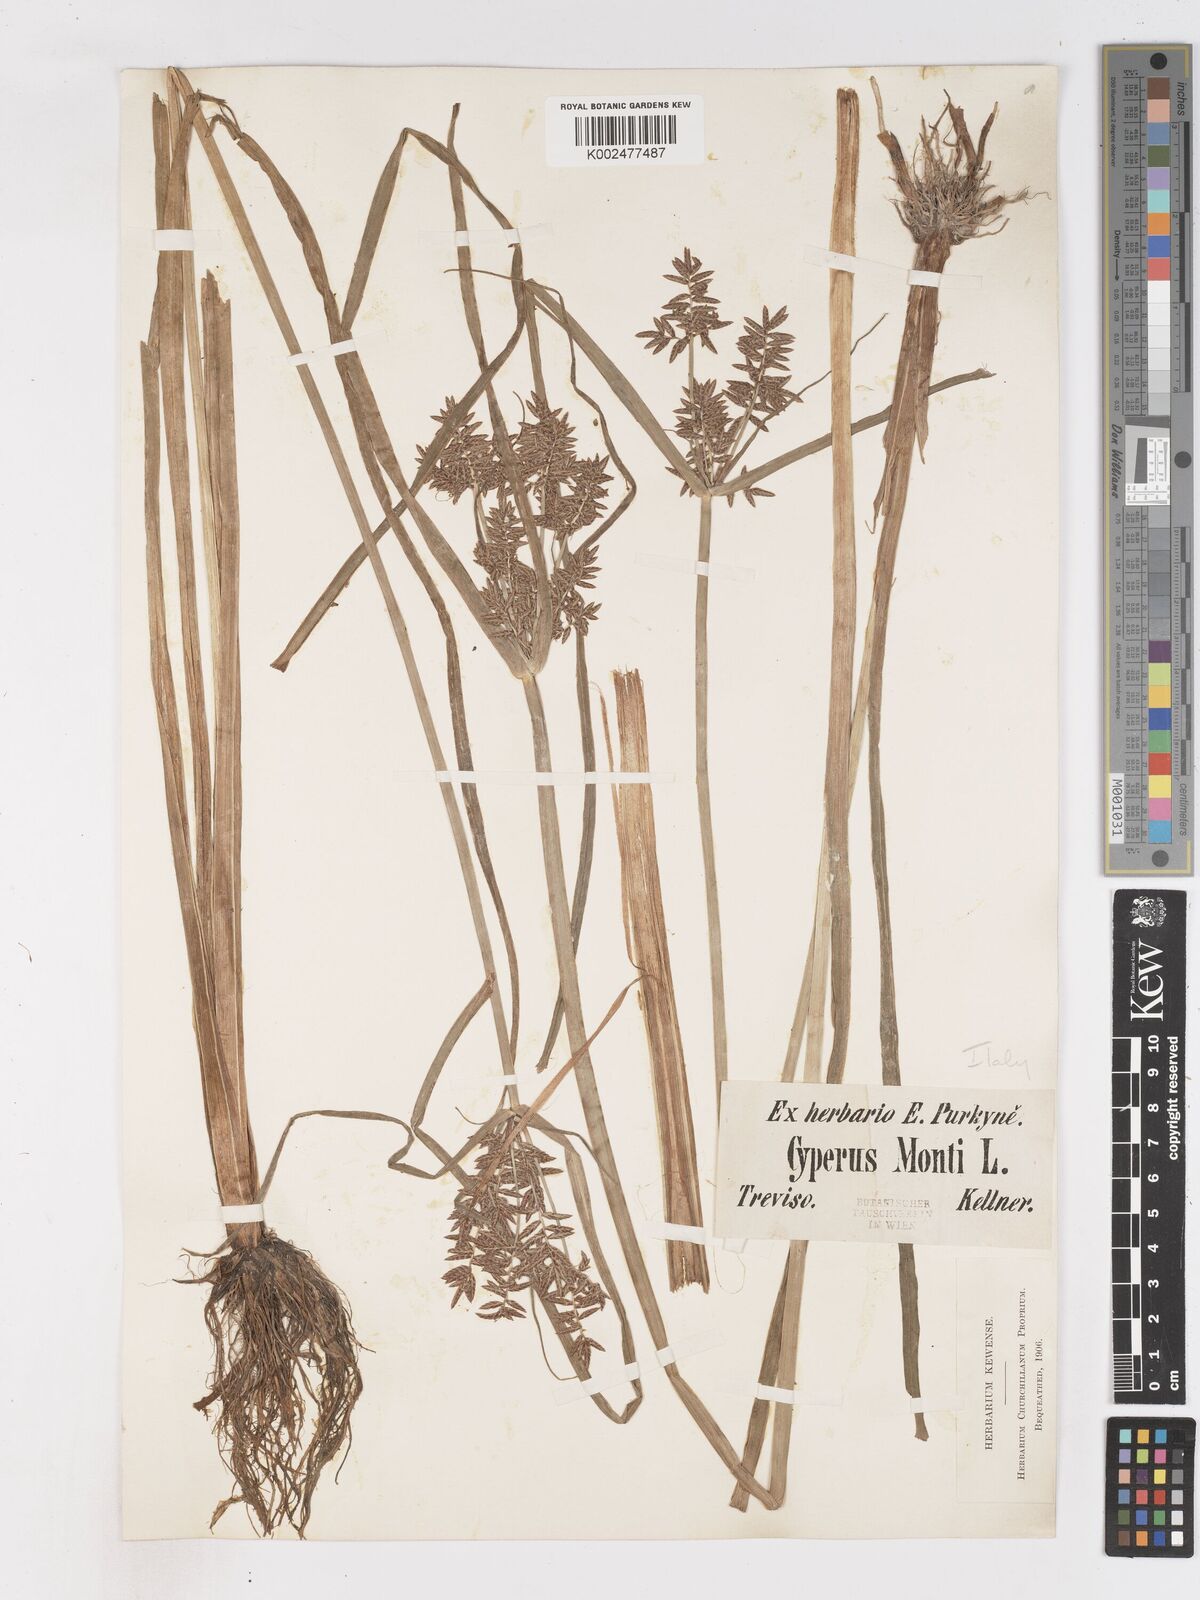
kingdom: Plantae
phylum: Tracheophyta
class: Liliopsida
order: Poales
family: Cyperaceae
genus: Cyperus
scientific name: Cyperus serotinus
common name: Tidalmarsh flatsedge
